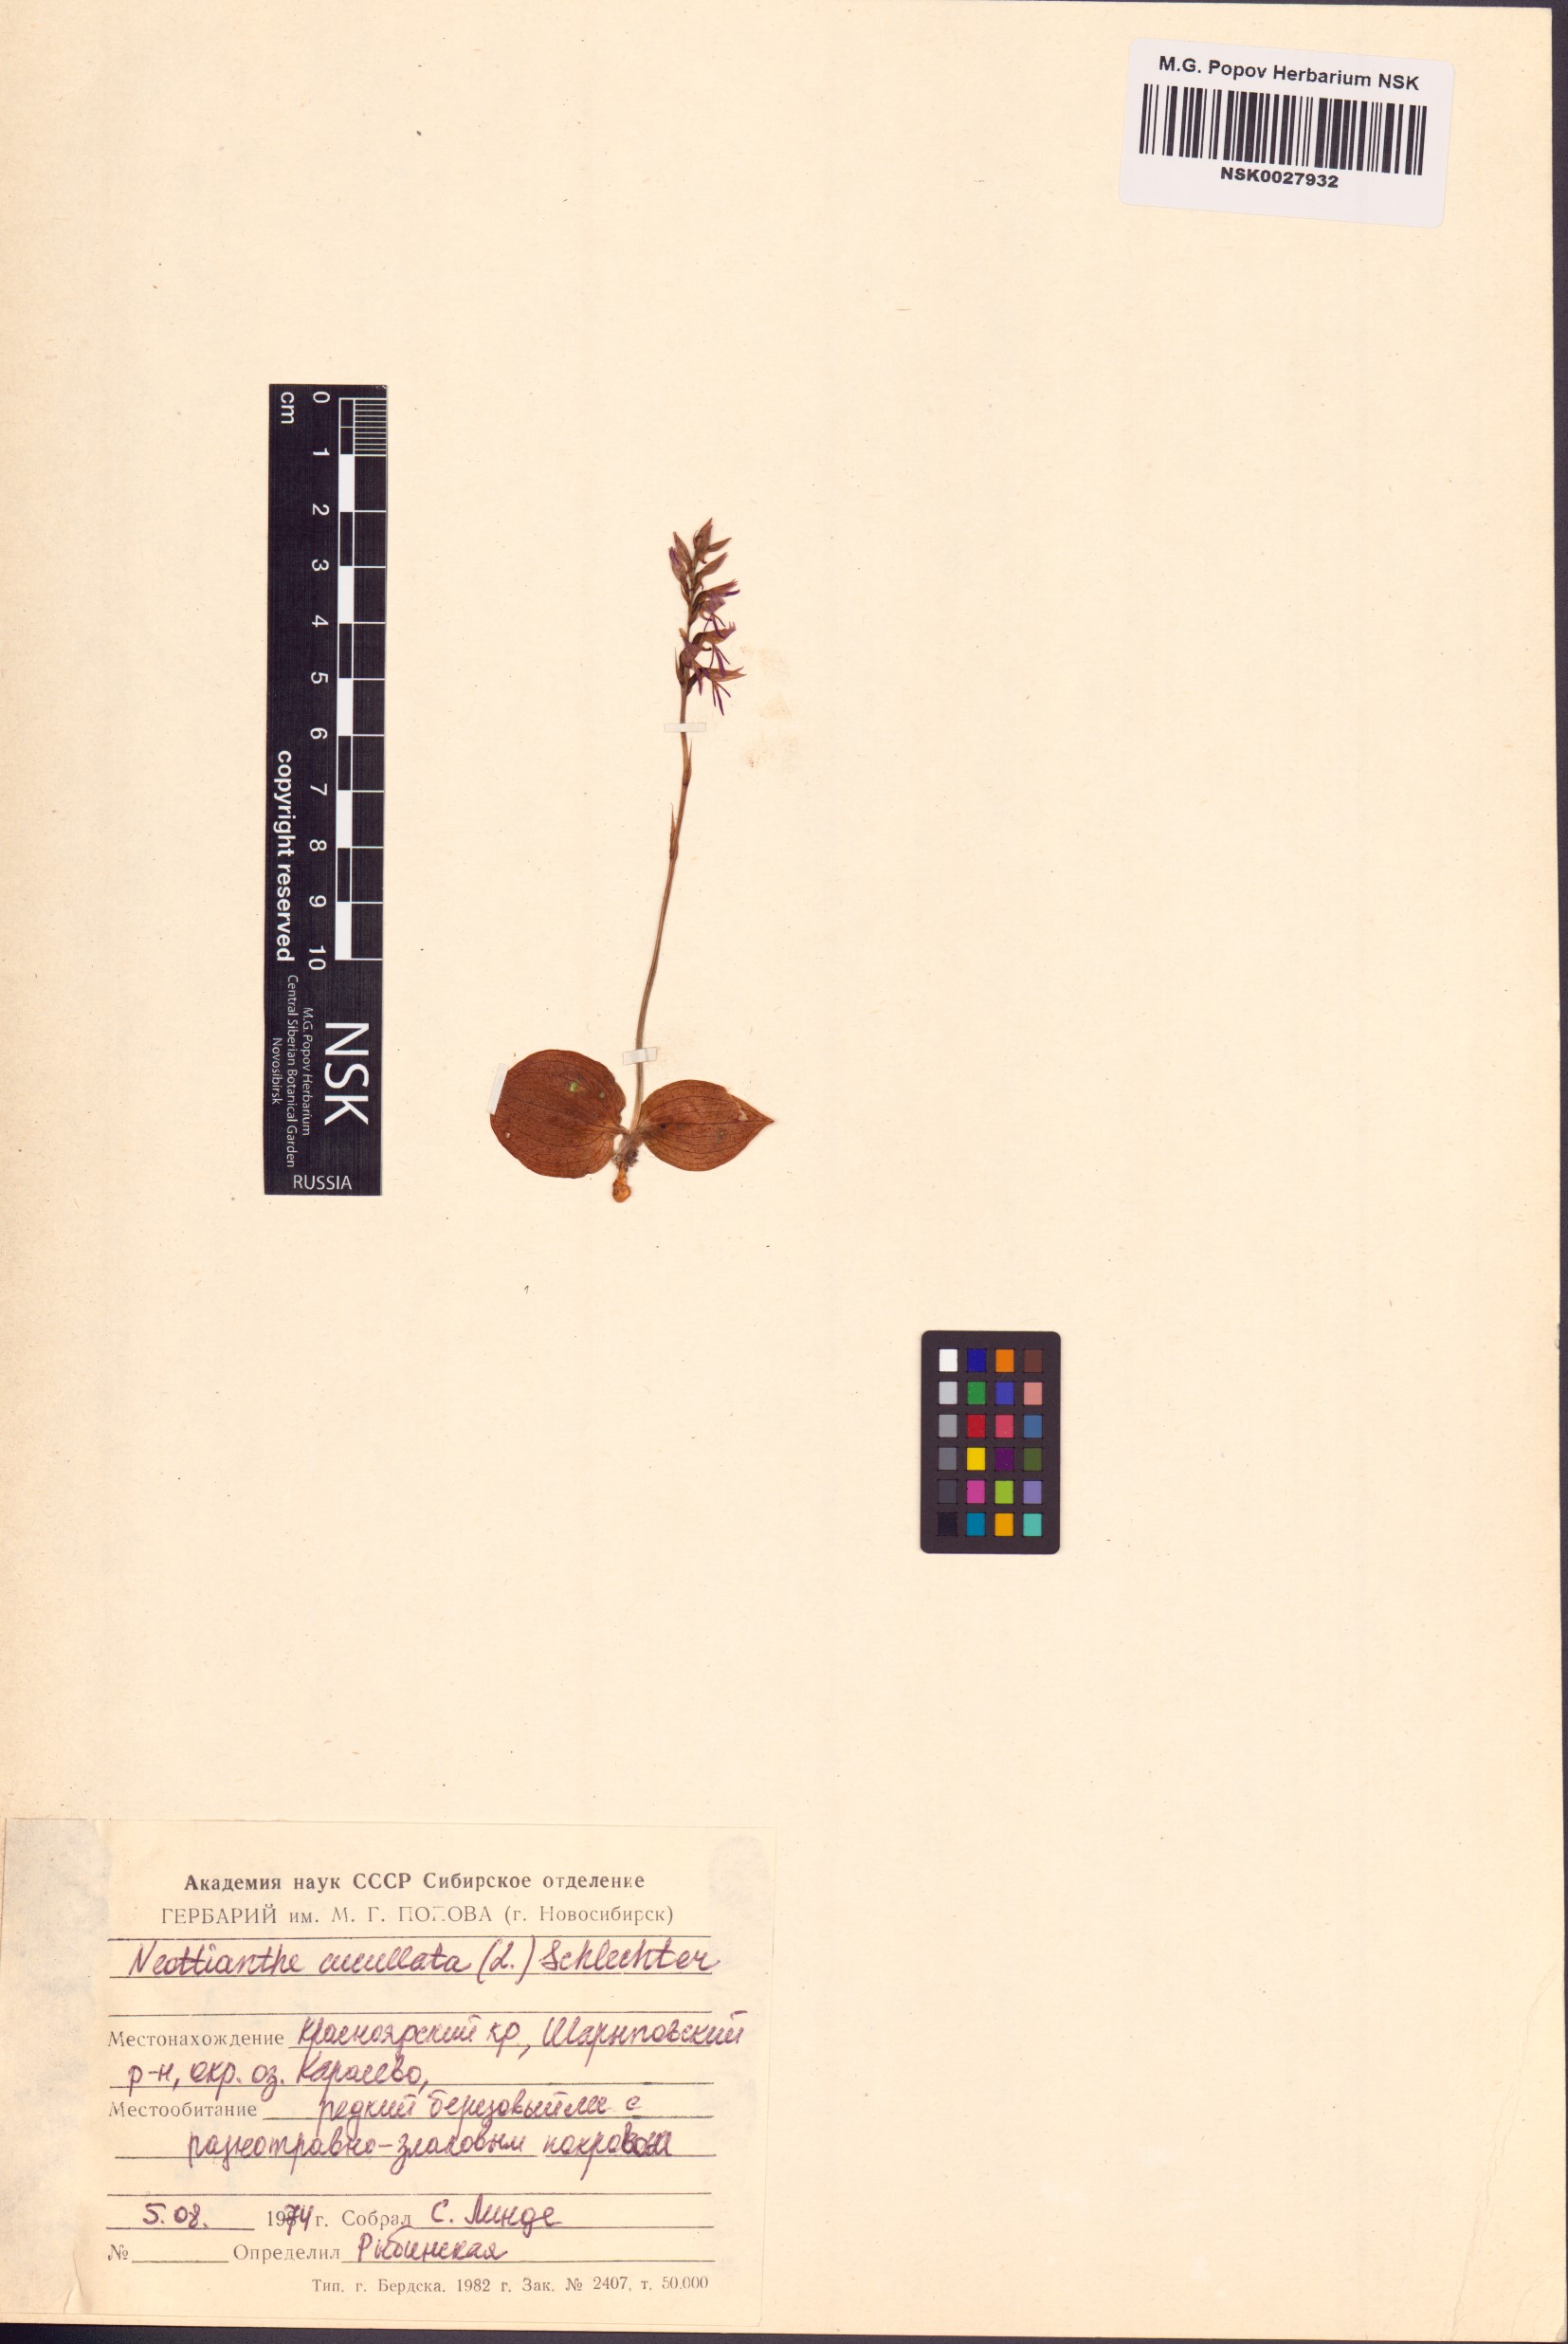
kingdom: Plantae
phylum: Tracheophyta
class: Liliopsida
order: Asparagales
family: Orchidaceae
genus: Hemipilia
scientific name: Hemipilia cucullata
